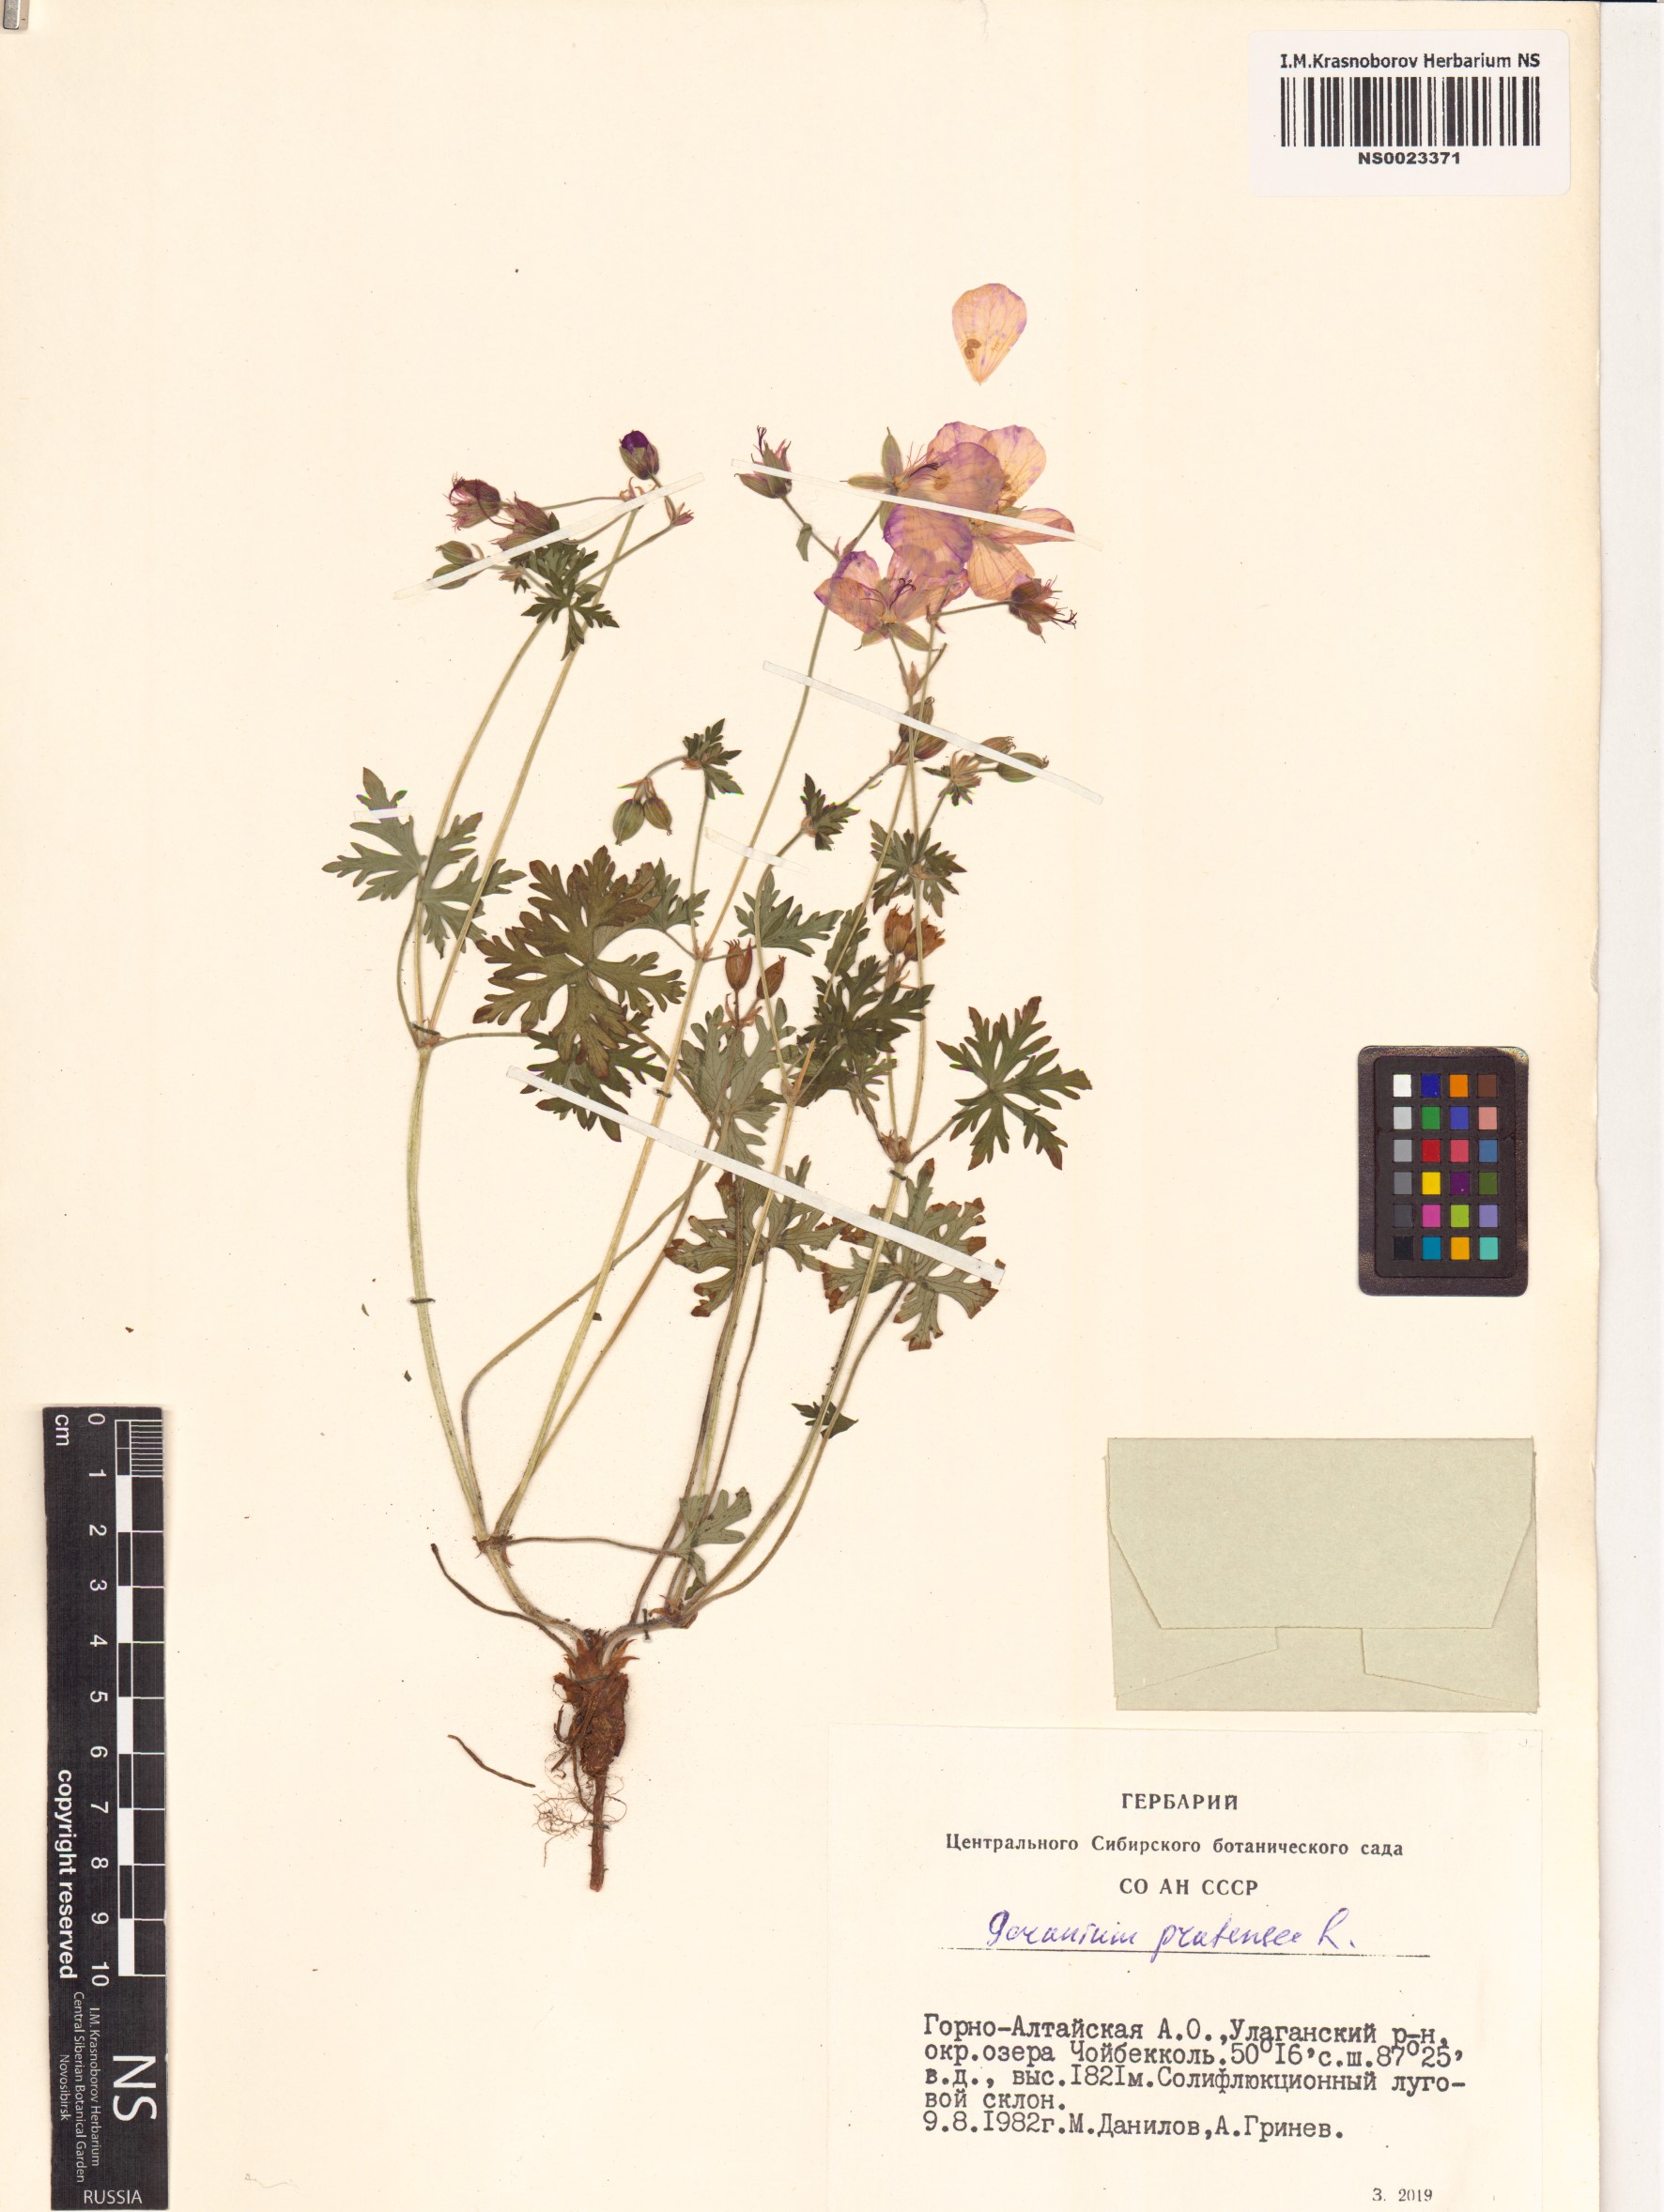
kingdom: Plantae
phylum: Tracheophyta
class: Magnoliopsida
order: Geraniales
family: Geraniaceae
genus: Geranium
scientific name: Geranium pratense
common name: Meadow crane's-bill
